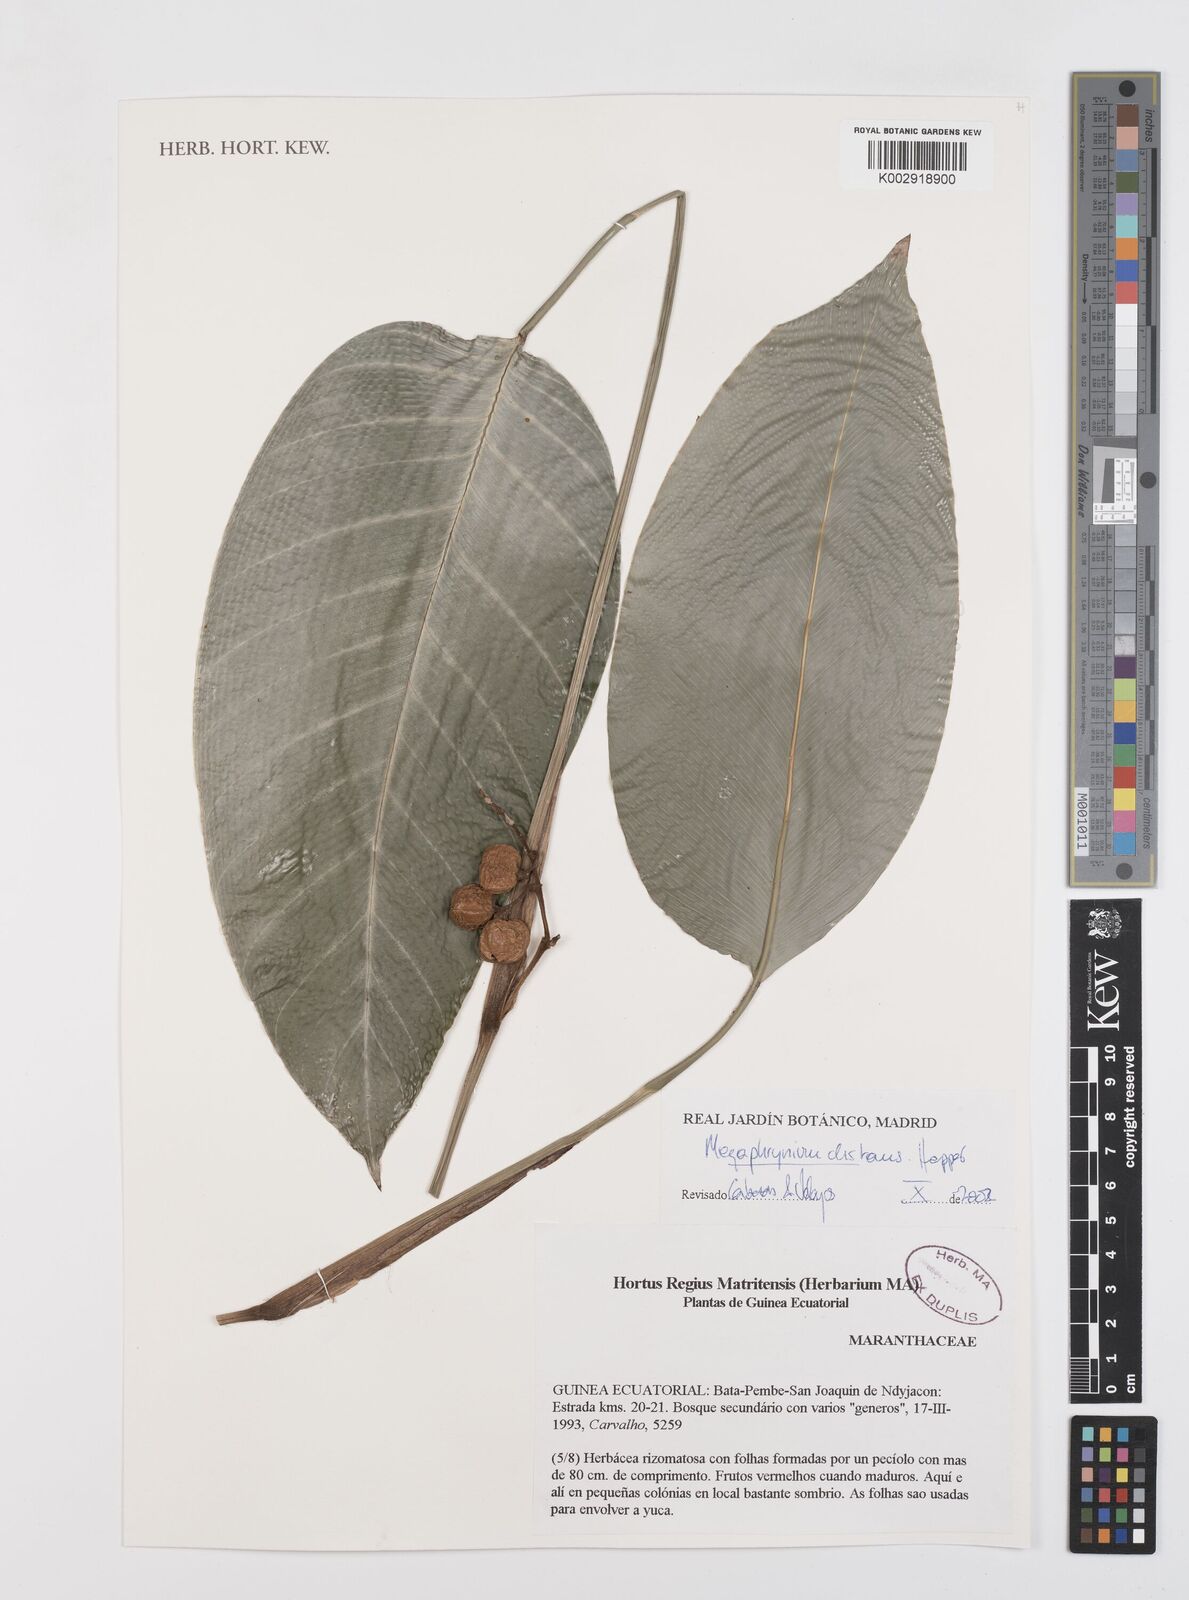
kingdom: Plantae
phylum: Tracheophyta
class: Liliopsida
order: Zingiberales
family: Marantaceae
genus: Megaphrynium
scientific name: Megaphrynium distans
